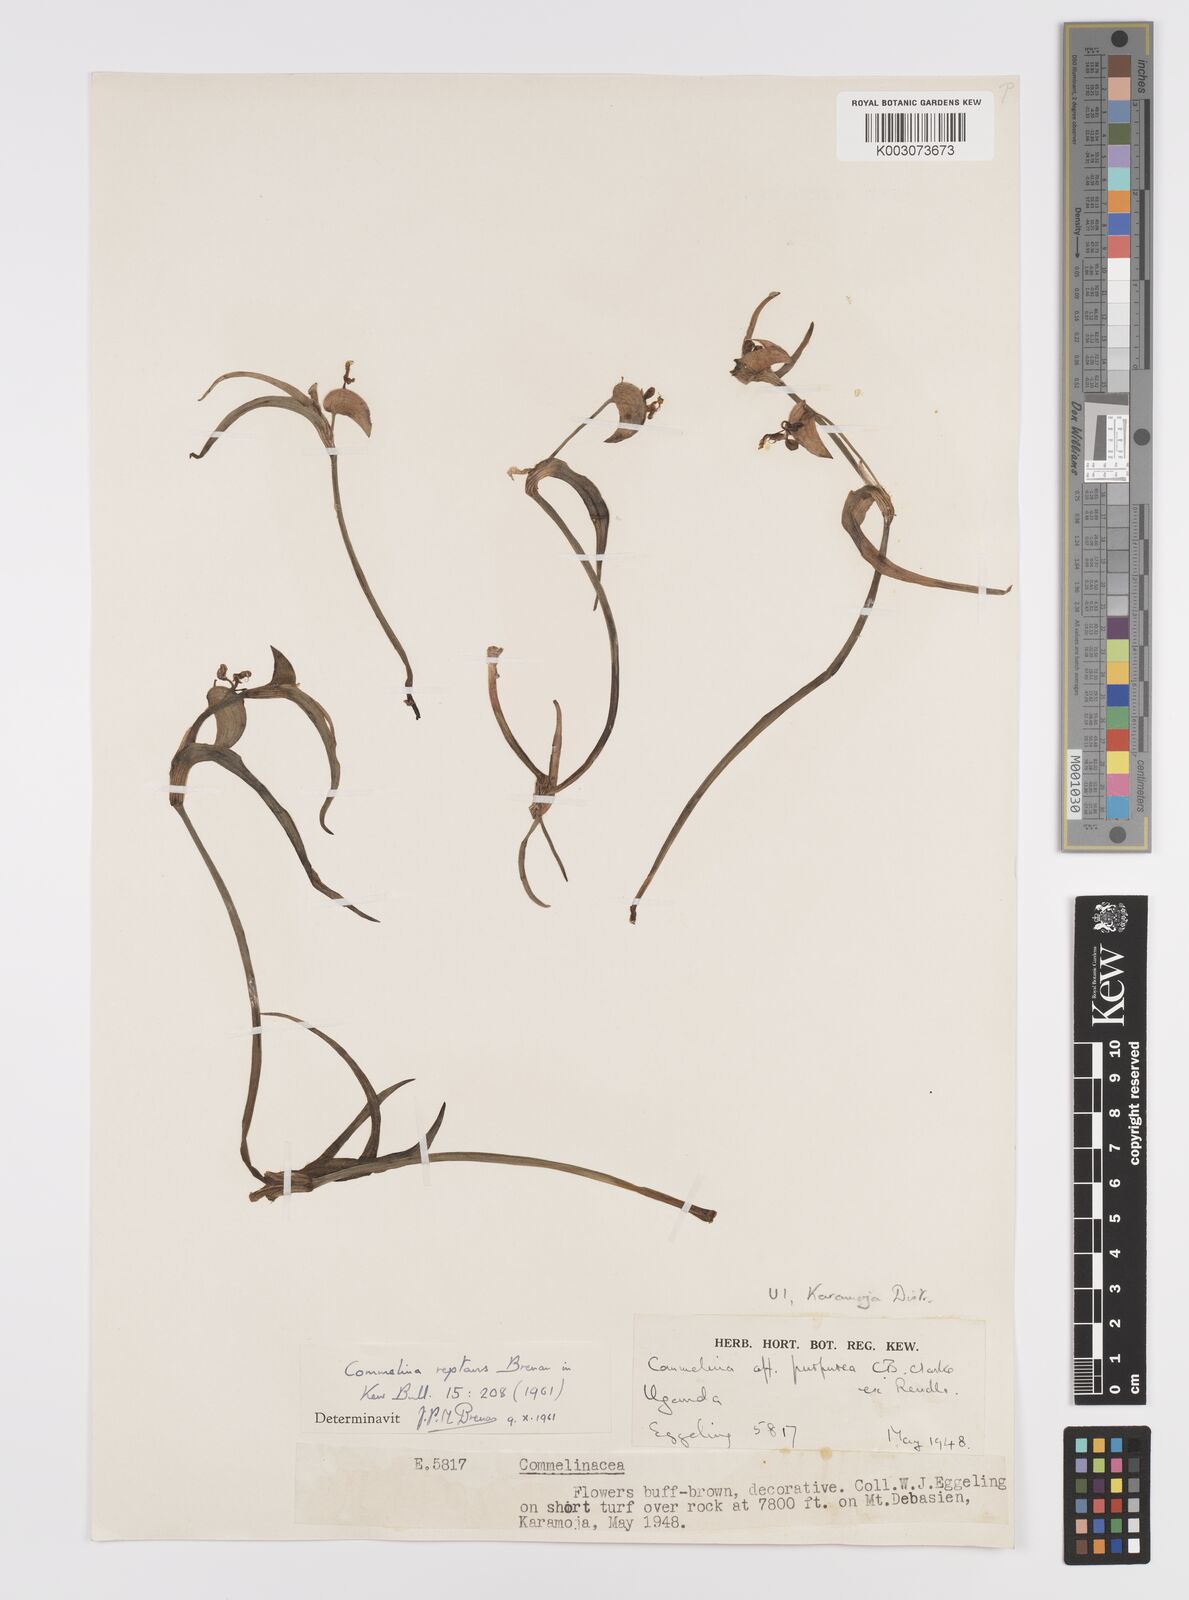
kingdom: Plantae
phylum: Tracheophyta
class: Liliopsida
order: Commelinales
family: Commelinaceae
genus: Commelina
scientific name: Commelina reptans
